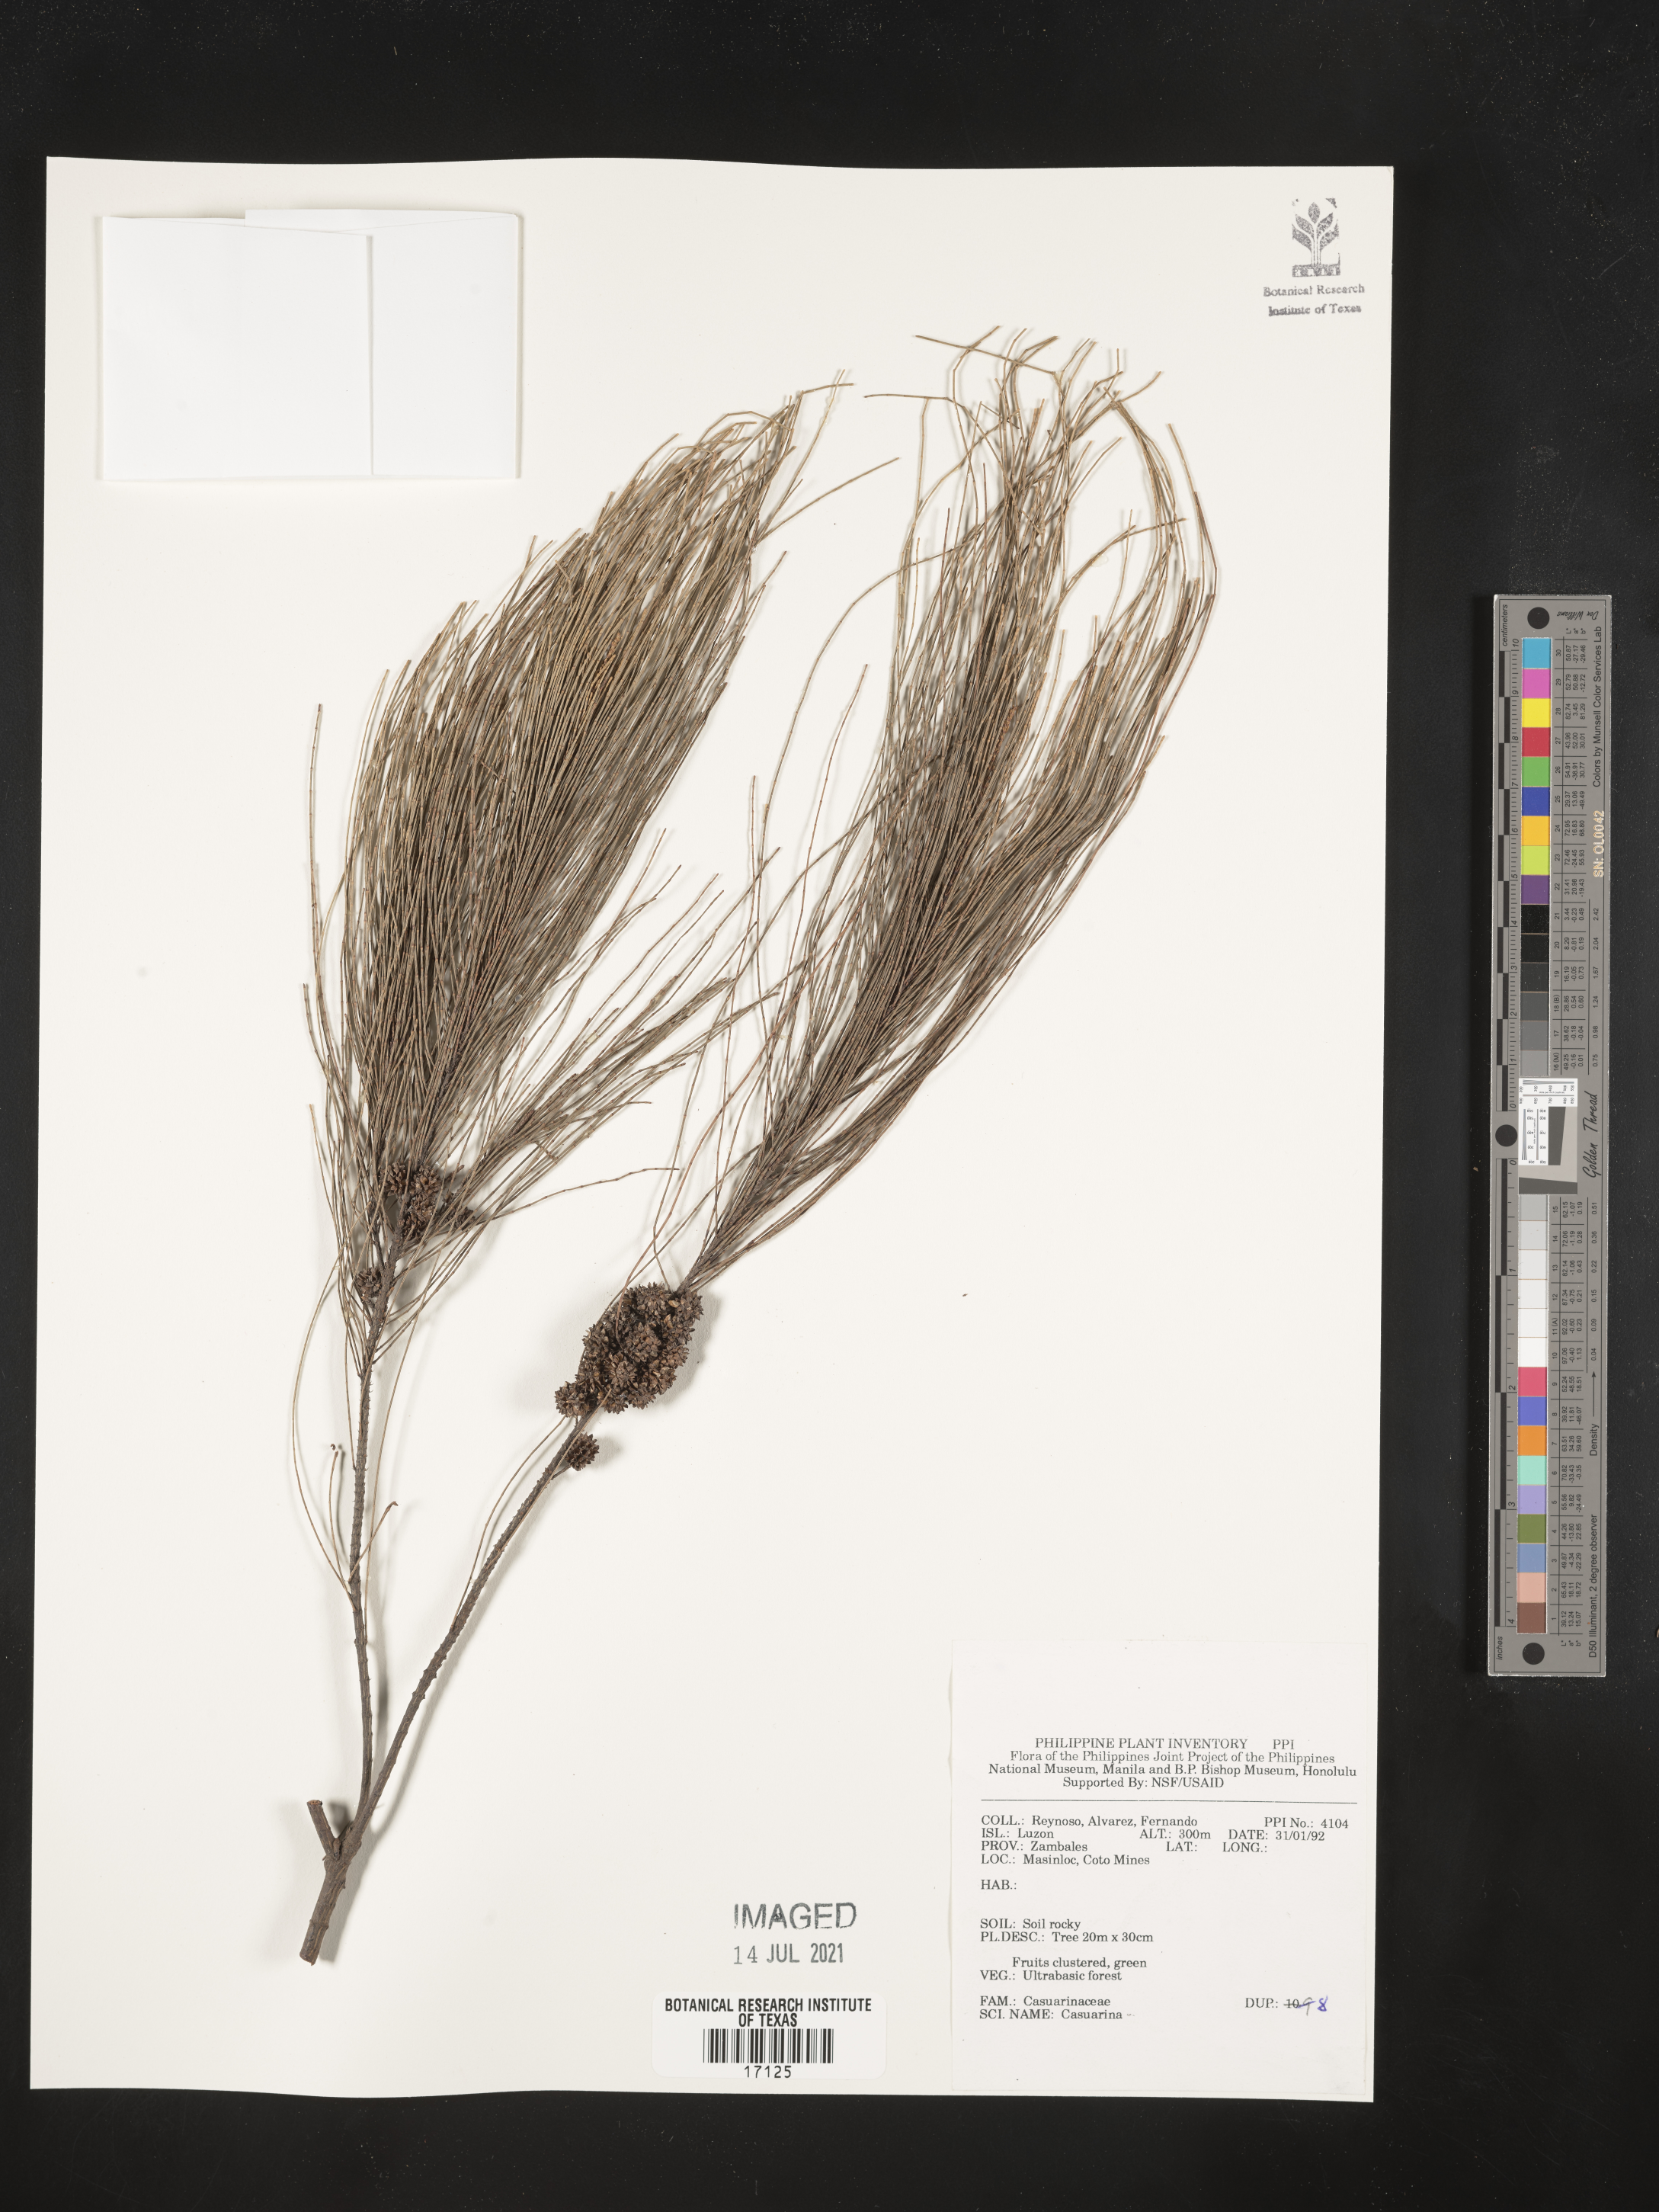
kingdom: Plantae
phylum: Tracheophyta
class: Magnoliopsida
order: Fagales
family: Casuarinaceae
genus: Casuarina
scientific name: Casuarina
